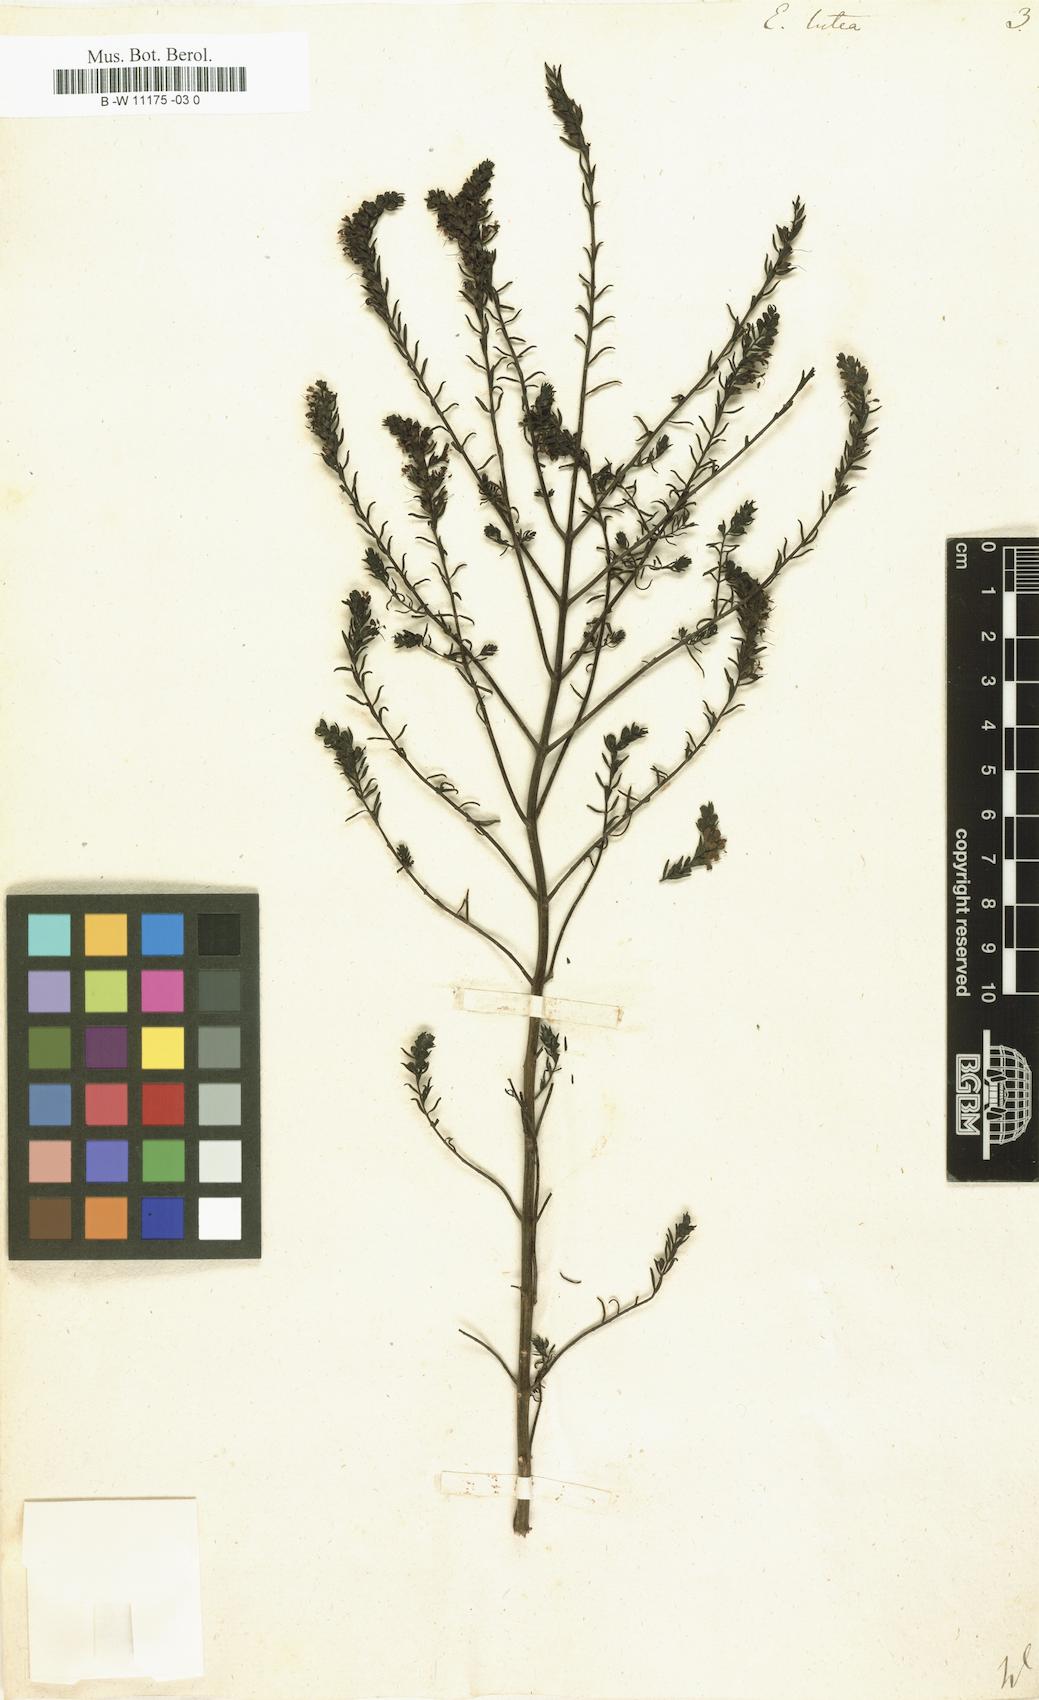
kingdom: Plantae
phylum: Tracheophyta
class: Magnoliopsida
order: Lamiales
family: Orobanchaceae
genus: Odontites
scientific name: Odontites
